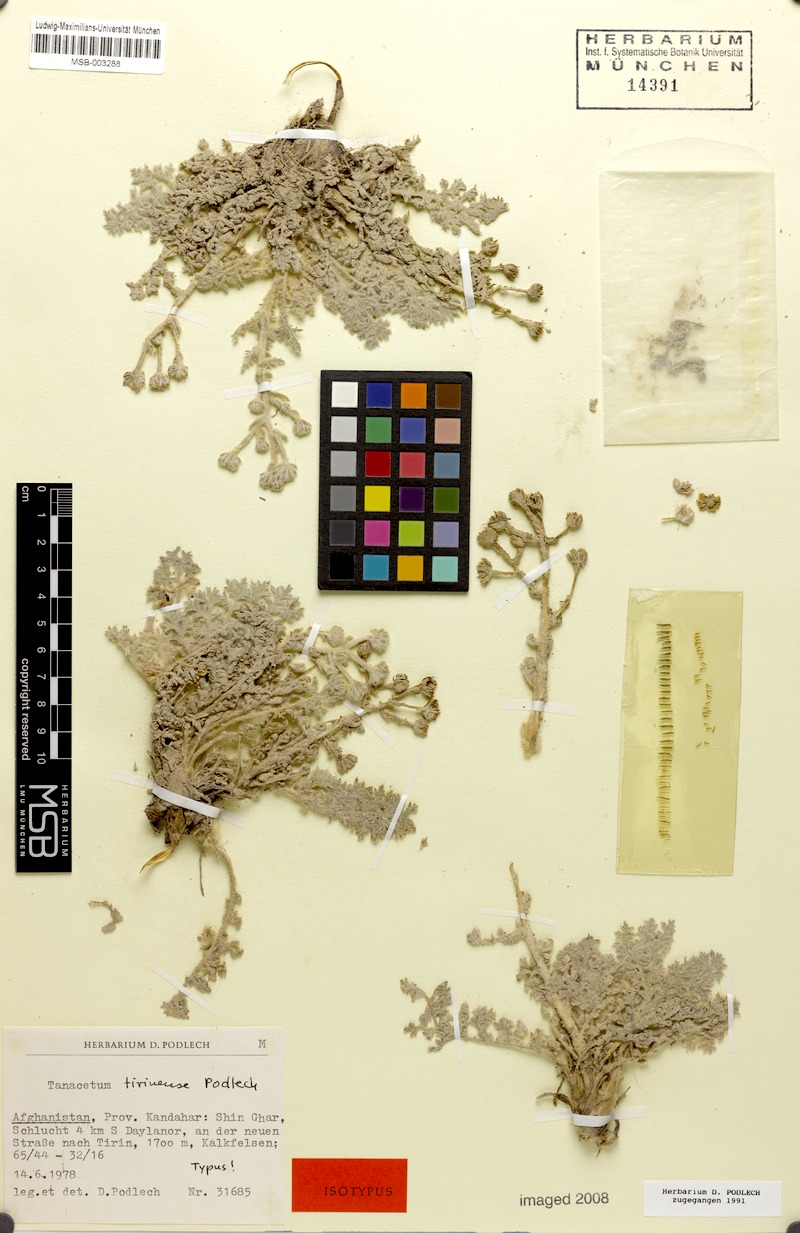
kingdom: Plantae
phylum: Tracheophyta
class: Magnoliopsida
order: Asterales
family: Asteraceae
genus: Tanacetum
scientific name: Tanacetum tirinense
